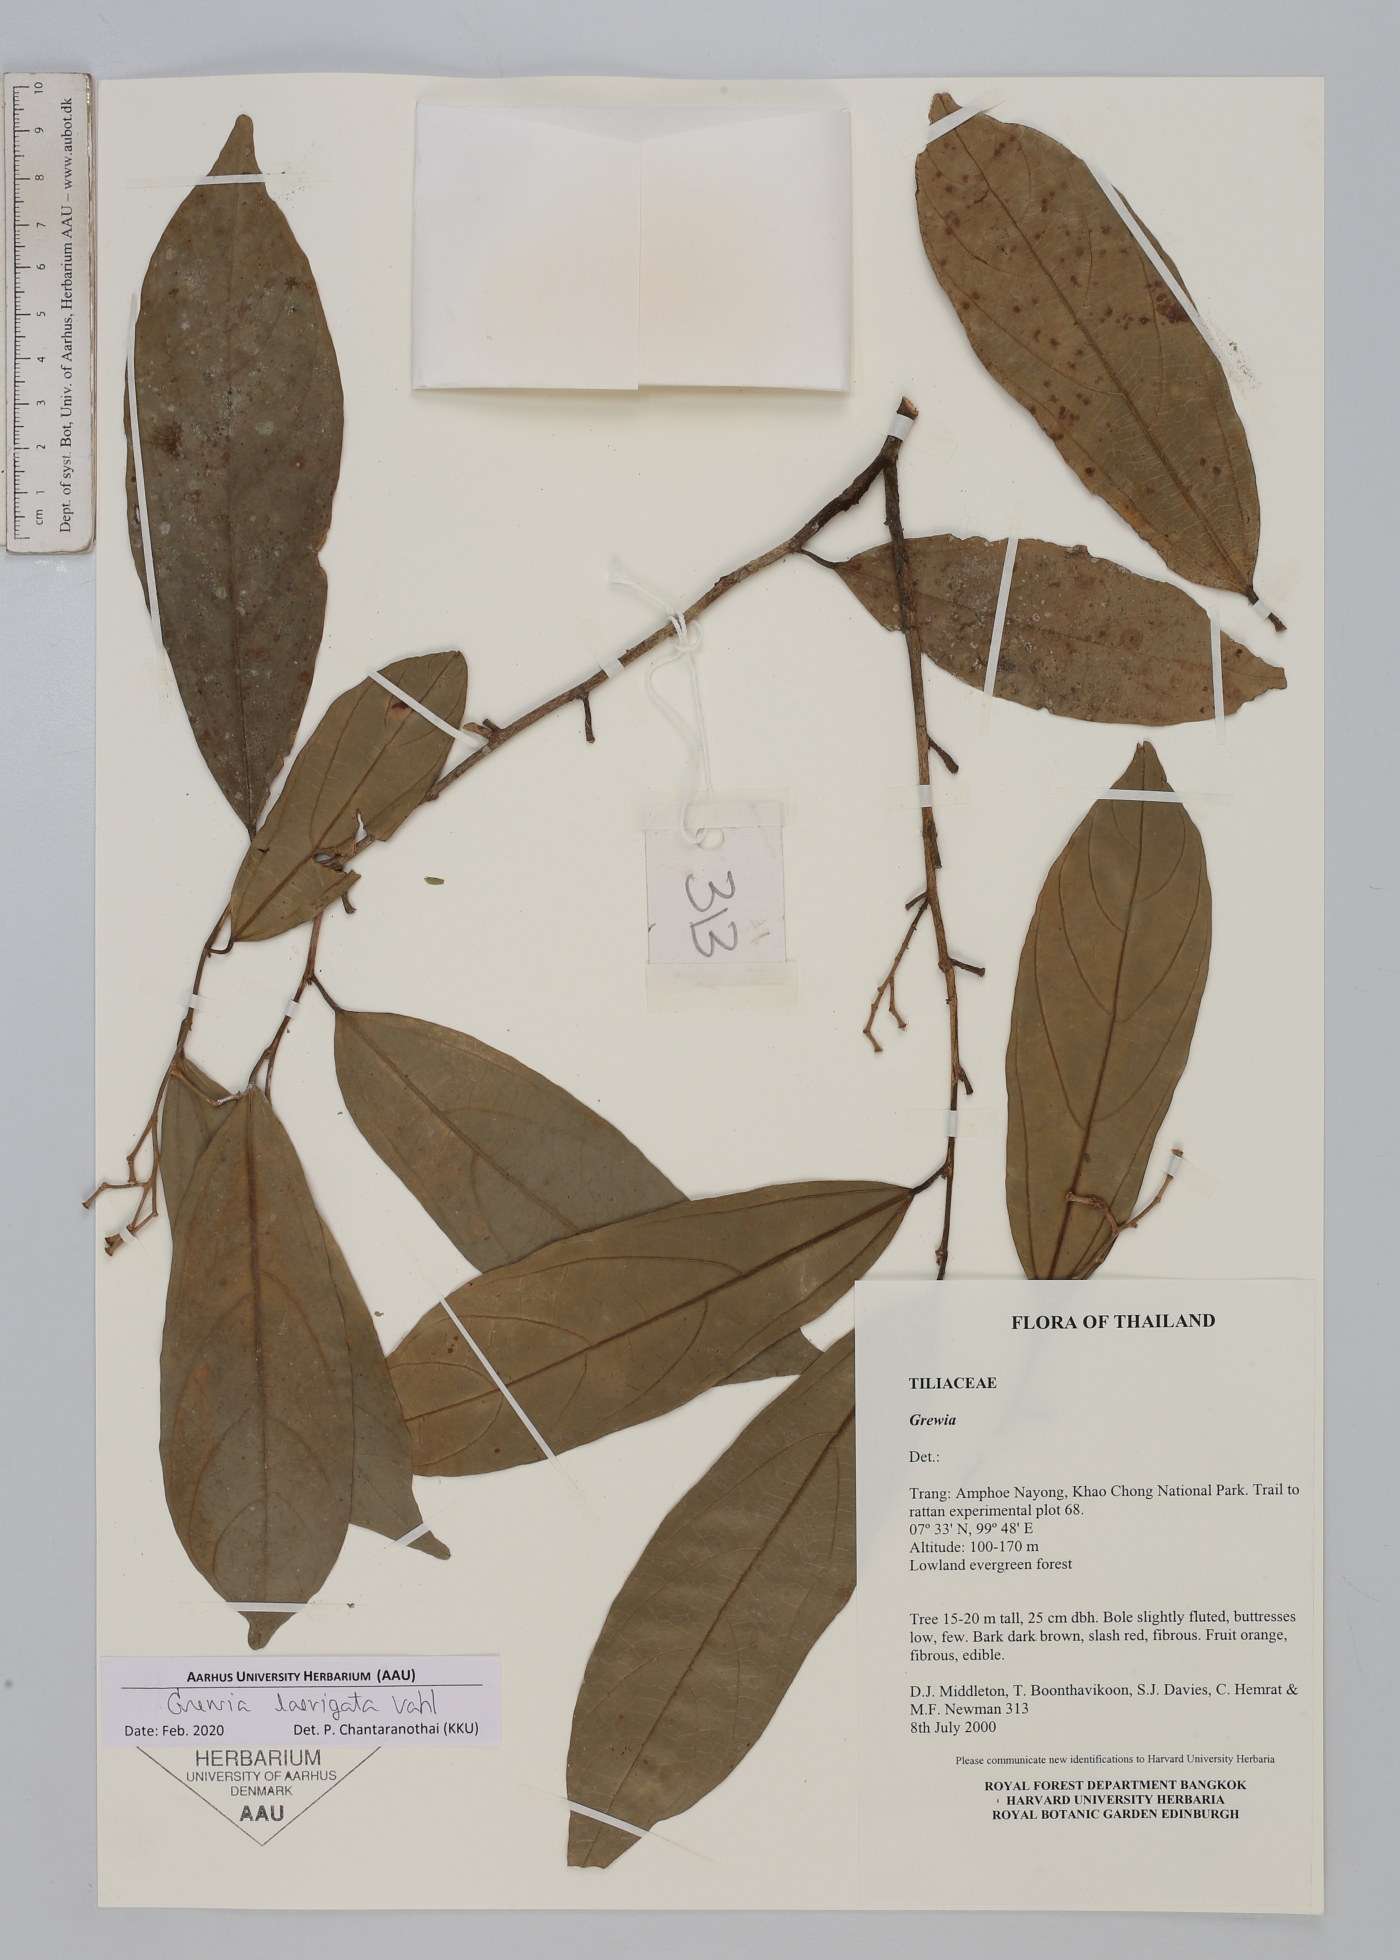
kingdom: Plantae
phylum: Tracheophyta
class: Magnoliopsida
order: Malvales
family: Malvaceae
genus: Grewia
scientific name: Grewia laevigata
